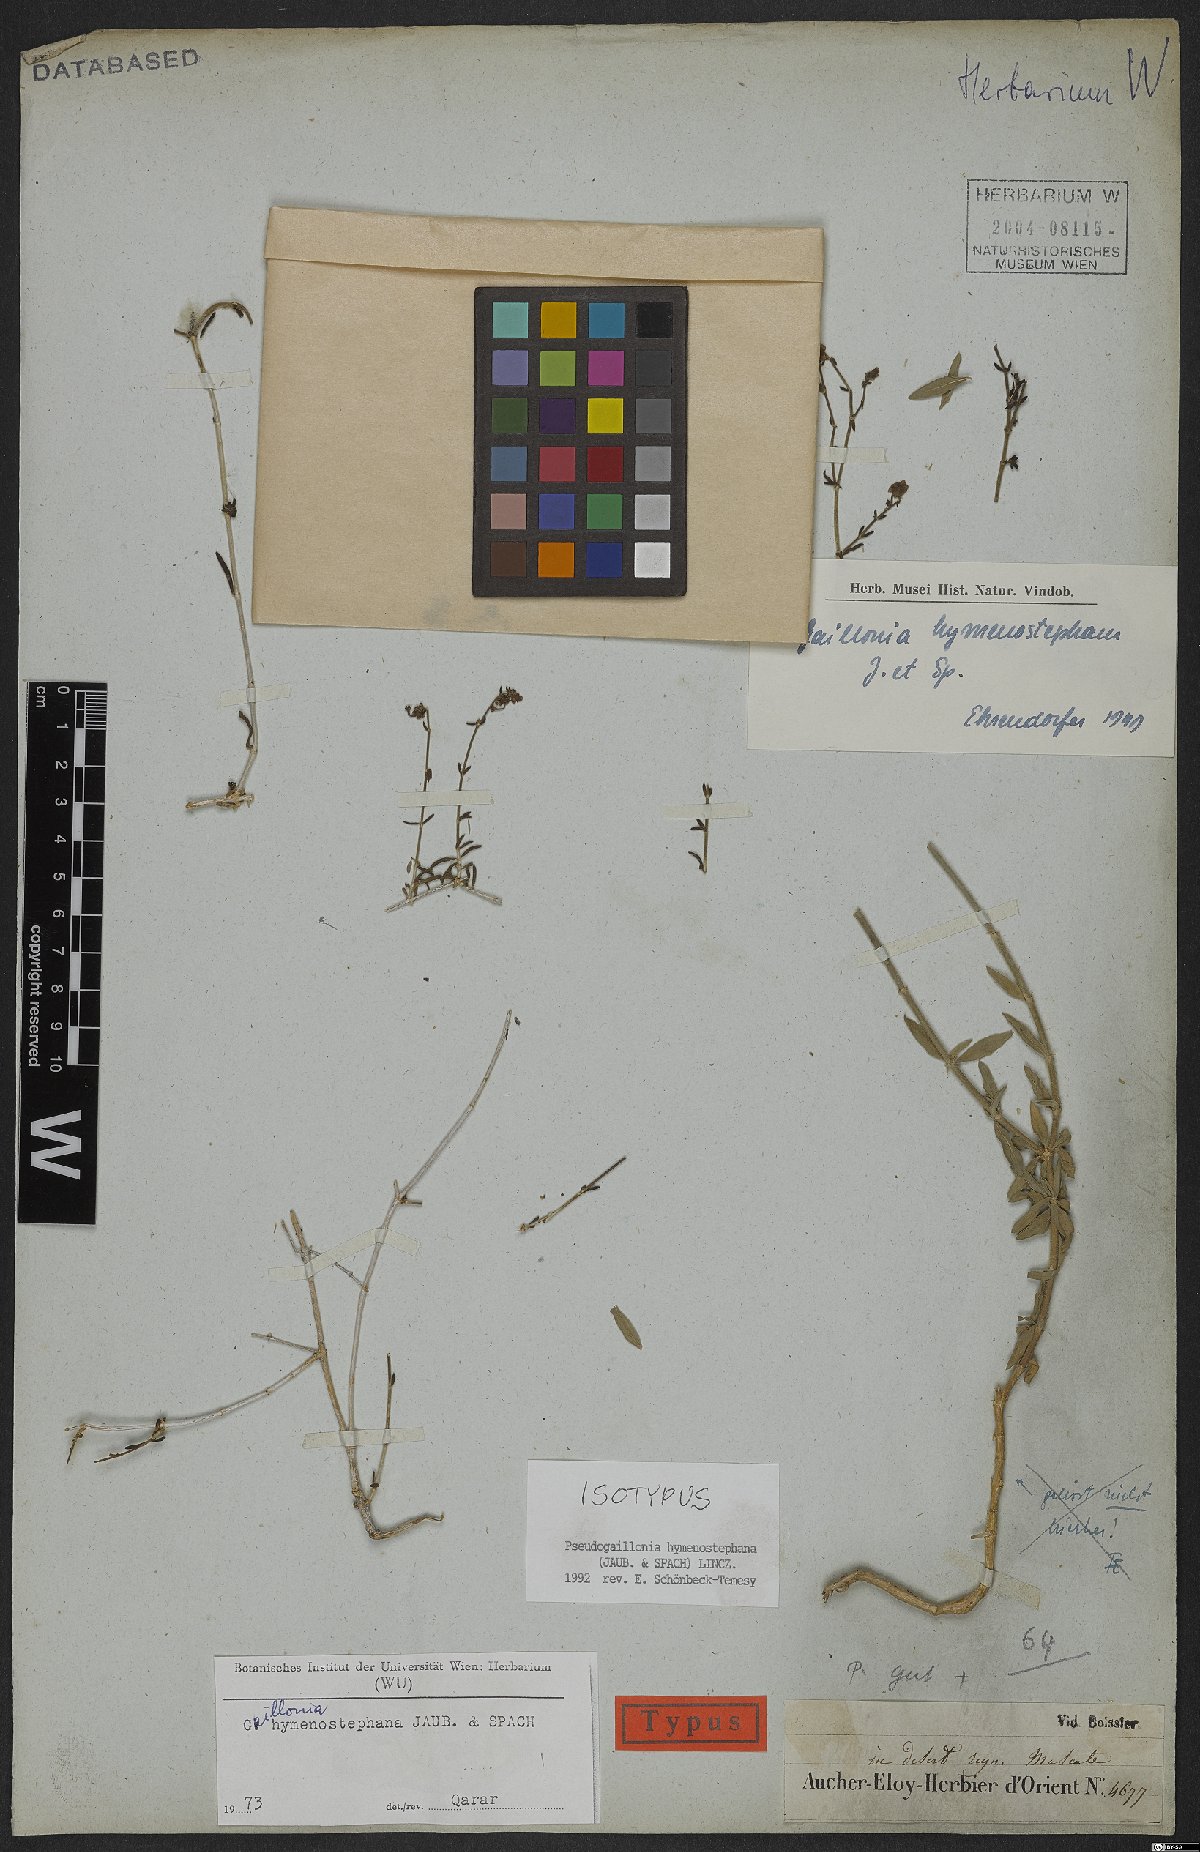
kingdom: Plantae
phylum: Tracheophyta
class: Magnoliopsida
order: Gentianales
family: Rubiaceae
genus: Plocama
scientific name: Plocama hymenostephana
